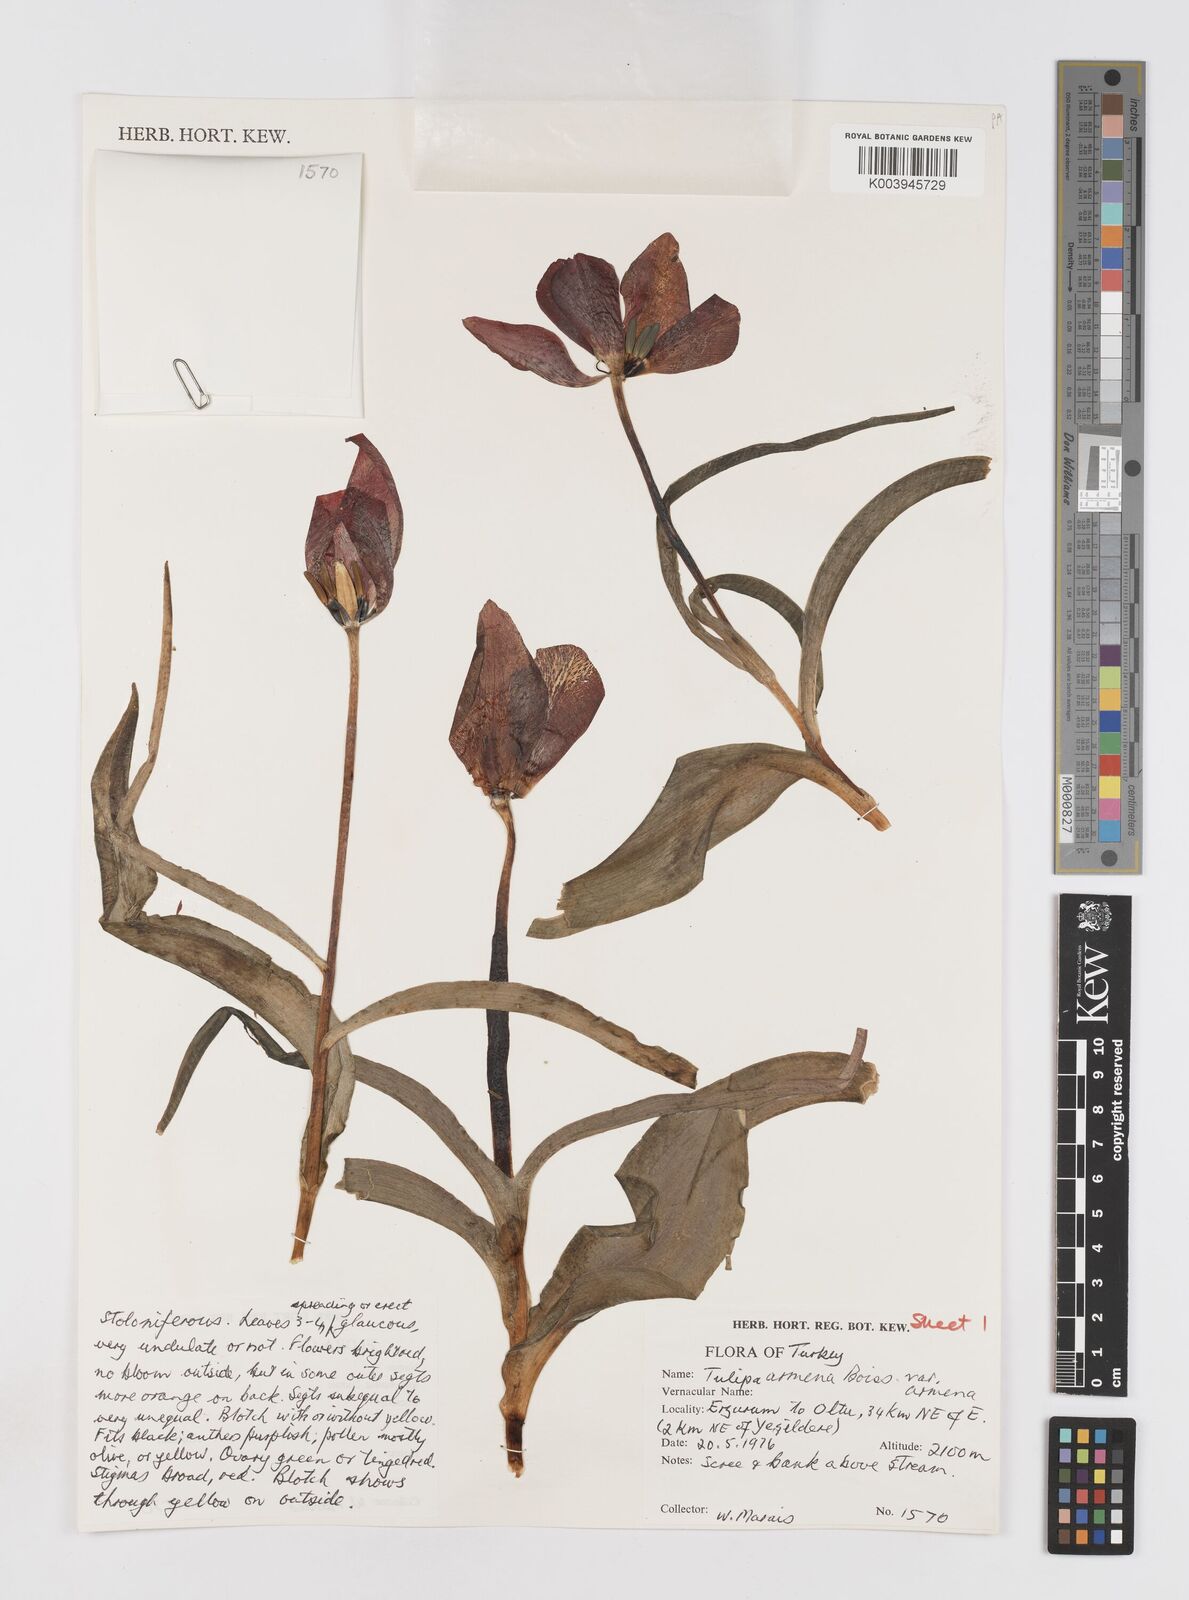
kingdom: Plantae
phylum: Tracheophyta
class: Liliopsida
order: Liliales
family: Liliaceae
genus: Tulipa
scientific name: Tulipa armena
